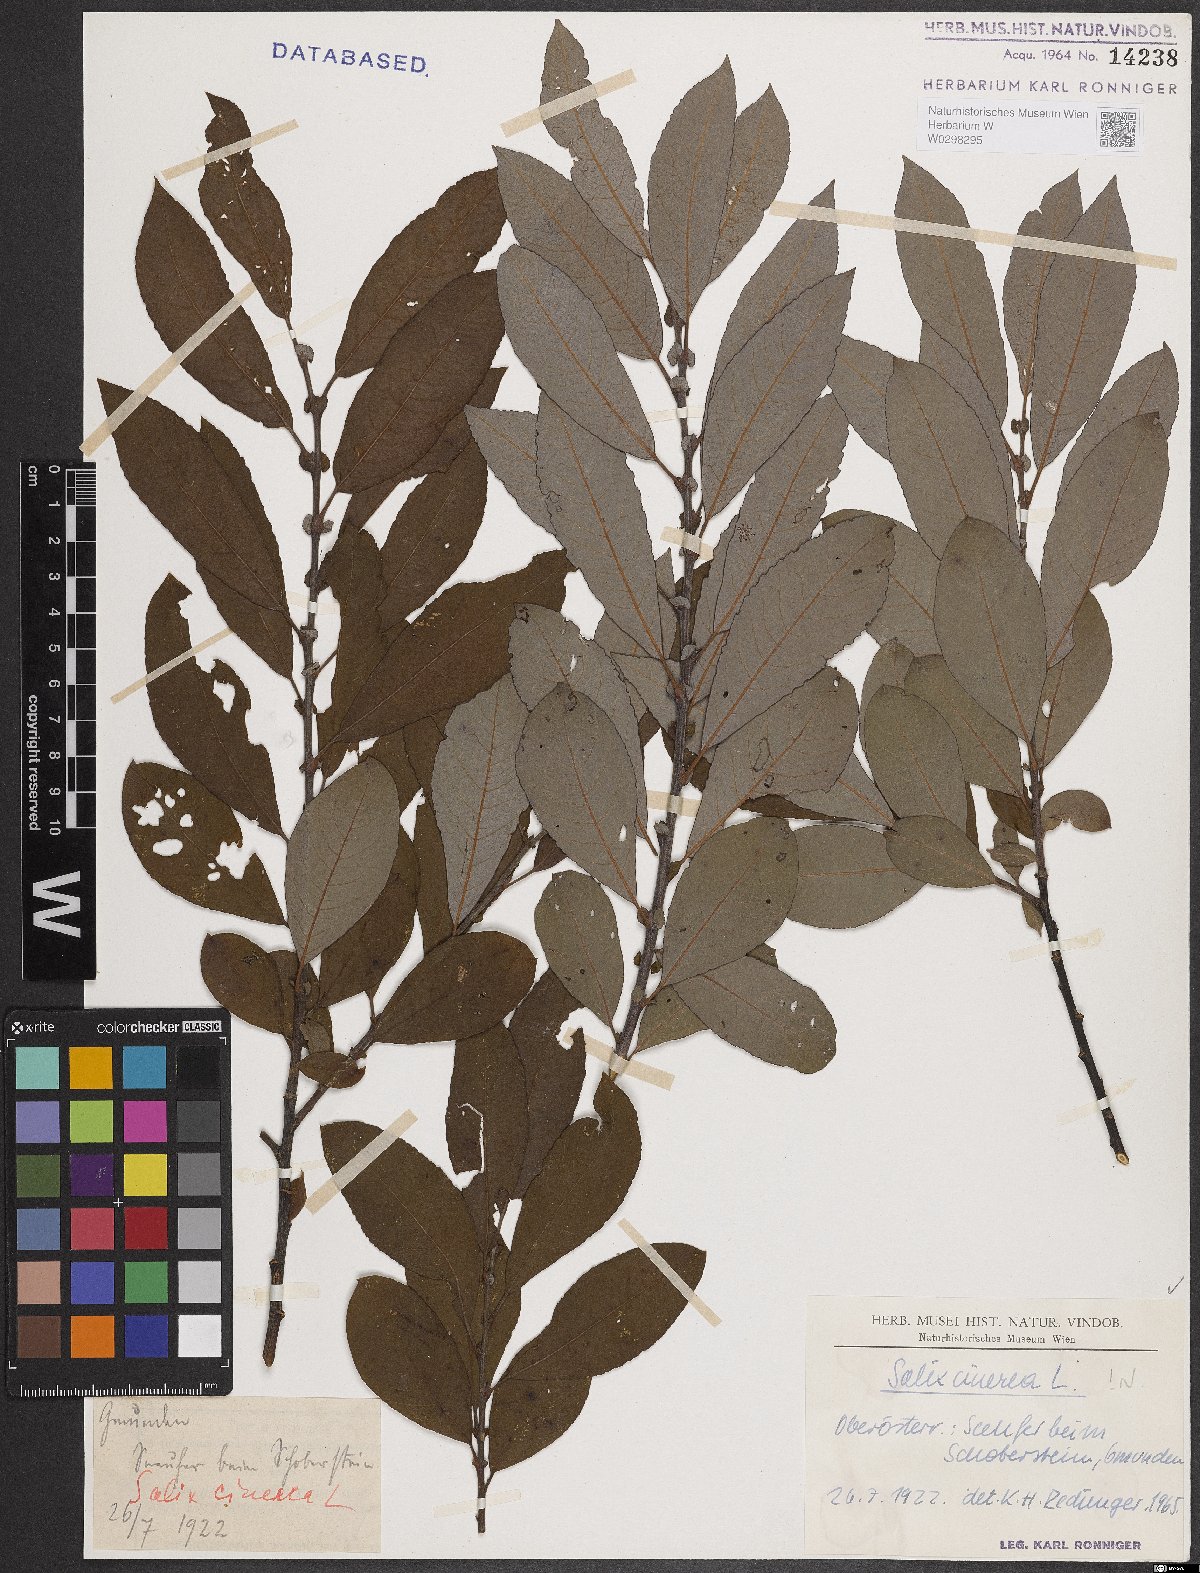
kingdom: Plantae
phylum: Tracheophyta
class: Magnoliopsida
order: Malpighiales
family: Salicaceae
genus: Salix
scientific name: Salix cinerea
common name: Common sallow
